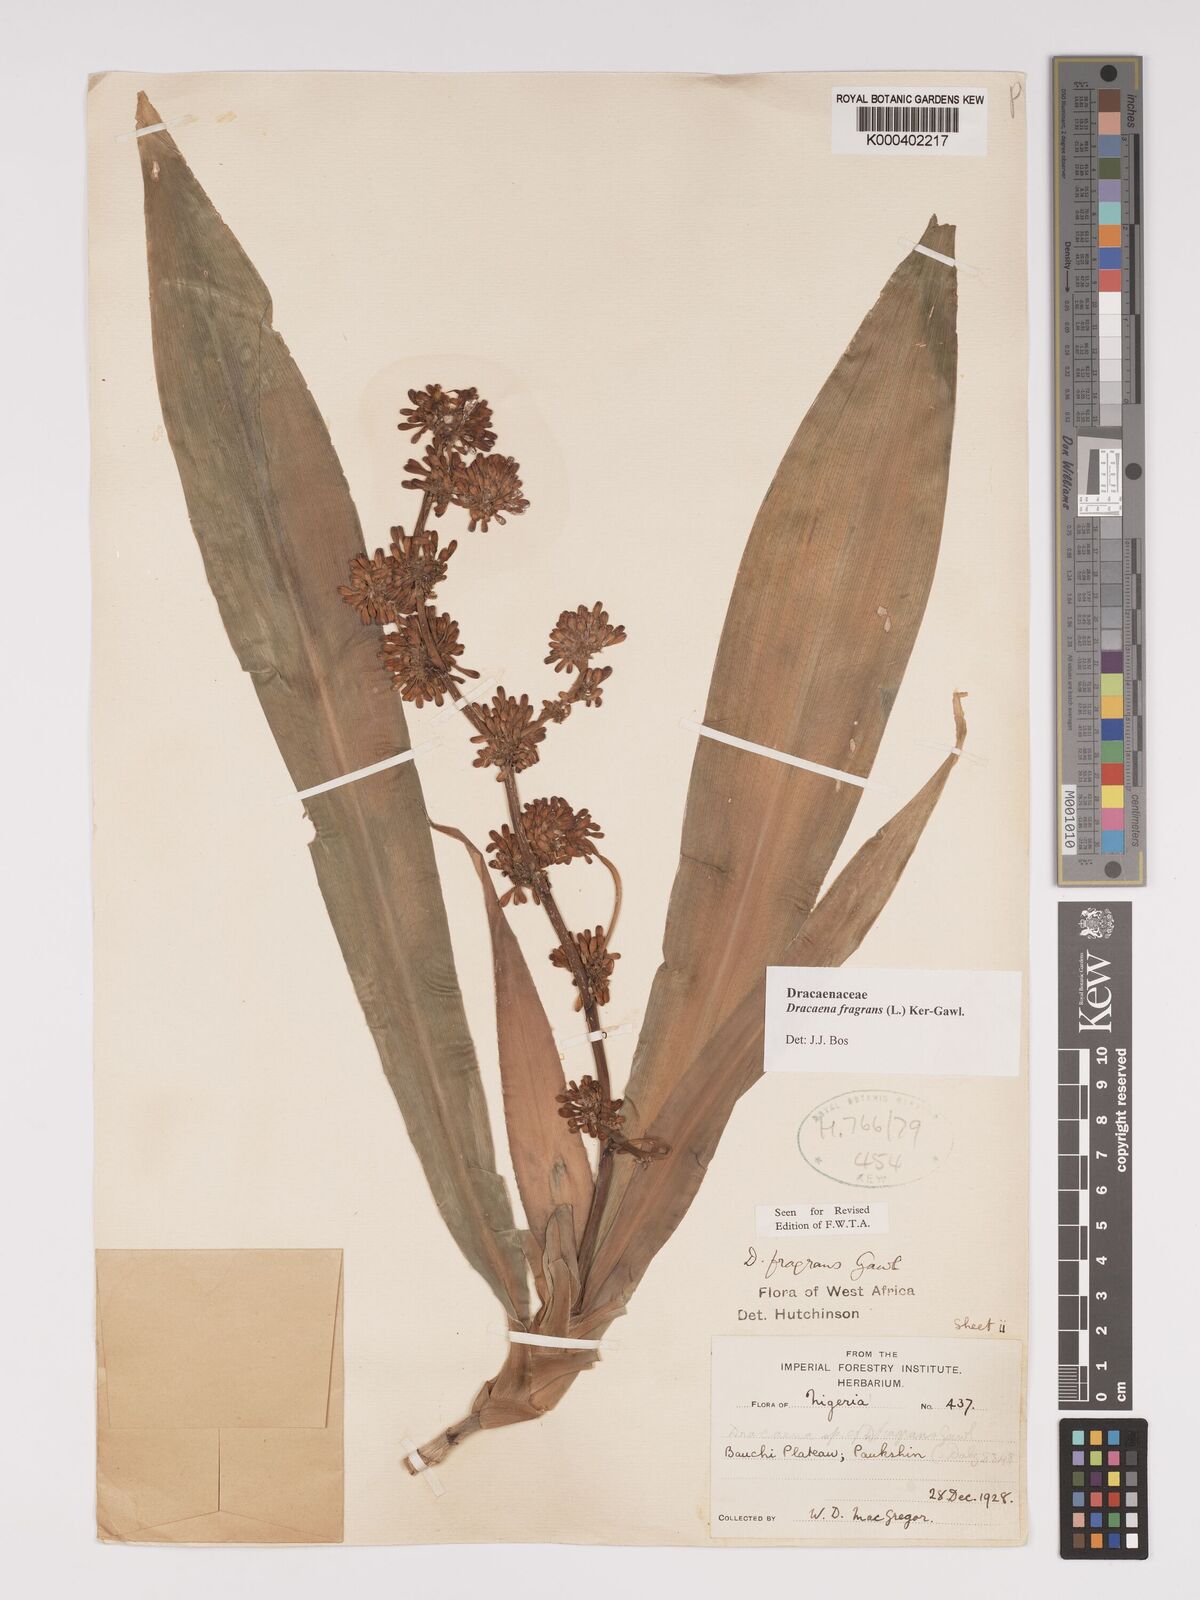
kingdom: Plantae
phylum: Tracheophyta
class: Liliopsida
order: Asparagales
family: Asparagaceae
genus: Dracaena
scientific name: Dracaena fragrans
